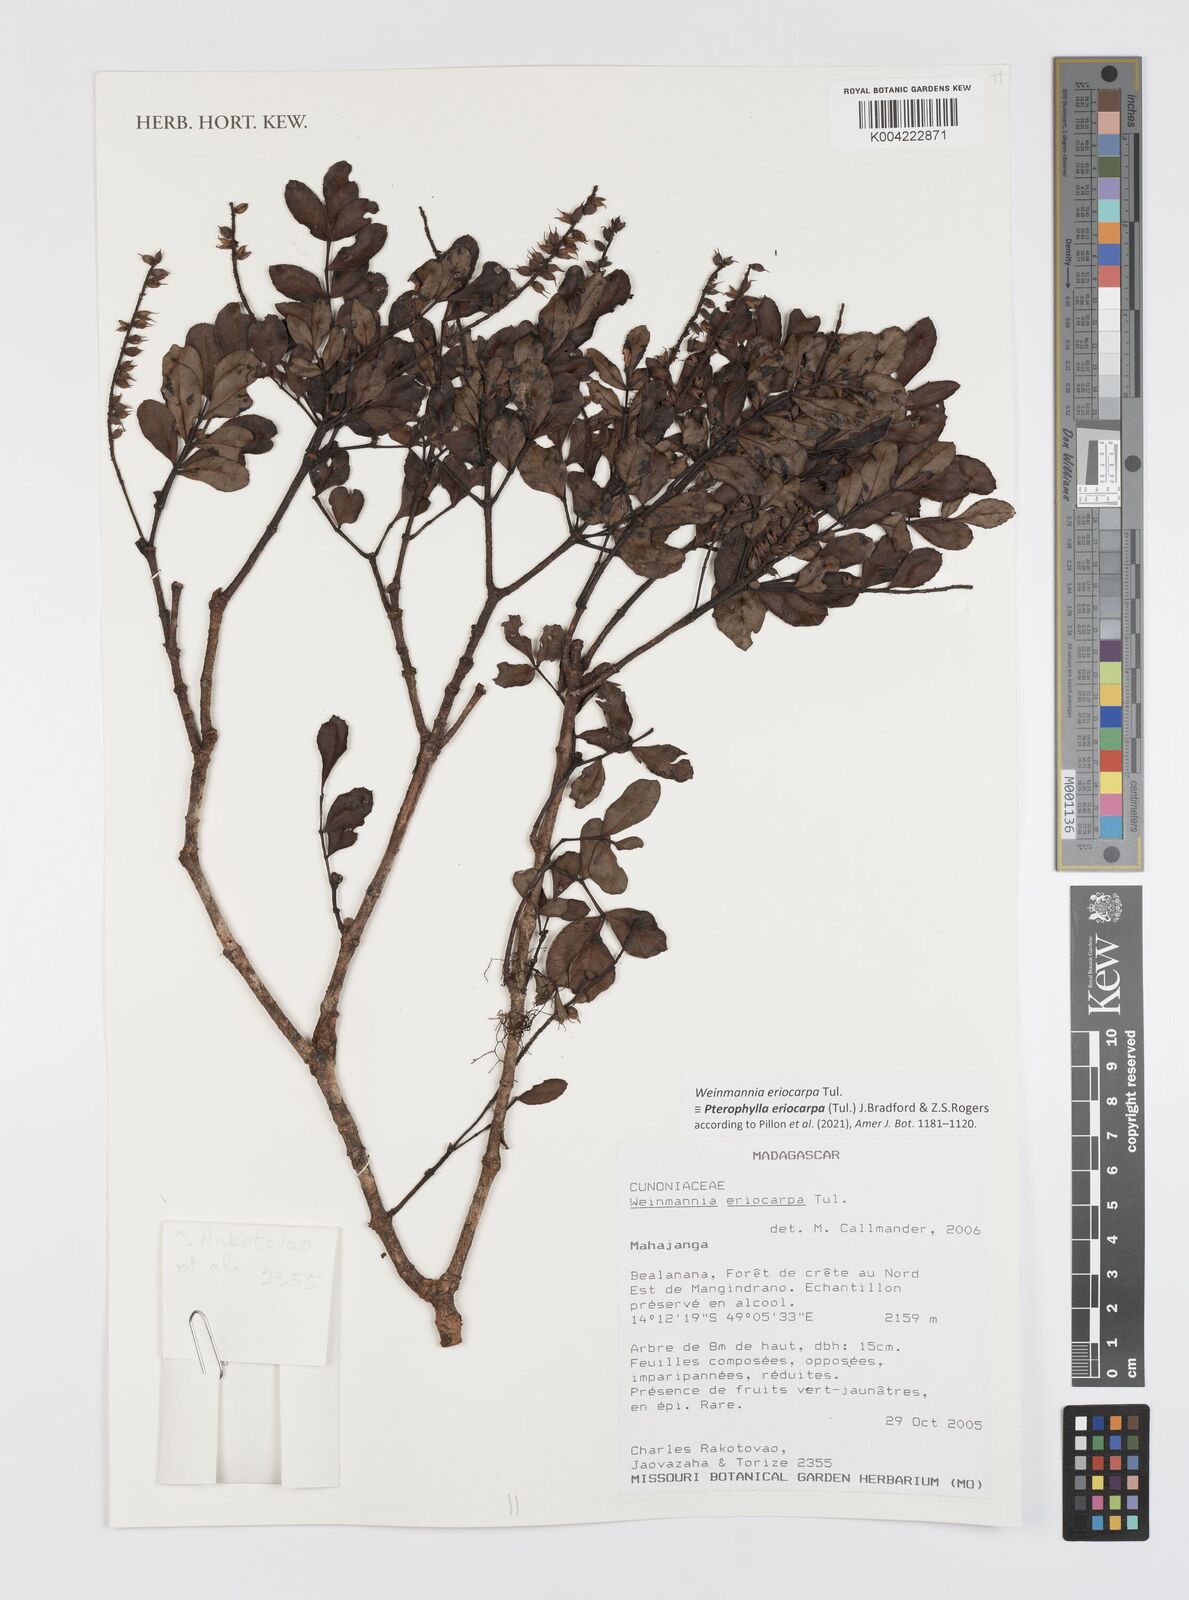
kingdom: Plantae
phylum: Tracheophyta
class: Magnoliopsida
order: Oxalidales
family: Cunoniaceae
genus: Pterophylla
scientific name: Pterophylla eriocarpa
